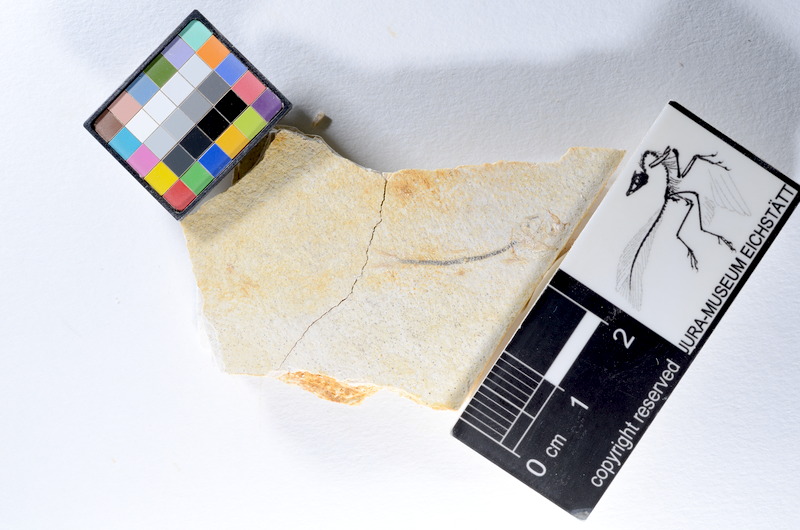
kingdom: Animalia
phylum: Chordata
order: Salmoniformes
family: Orthogonikleithridae
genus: Orthogonikleithrus
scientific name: Orthogonikleithrus hoelli
